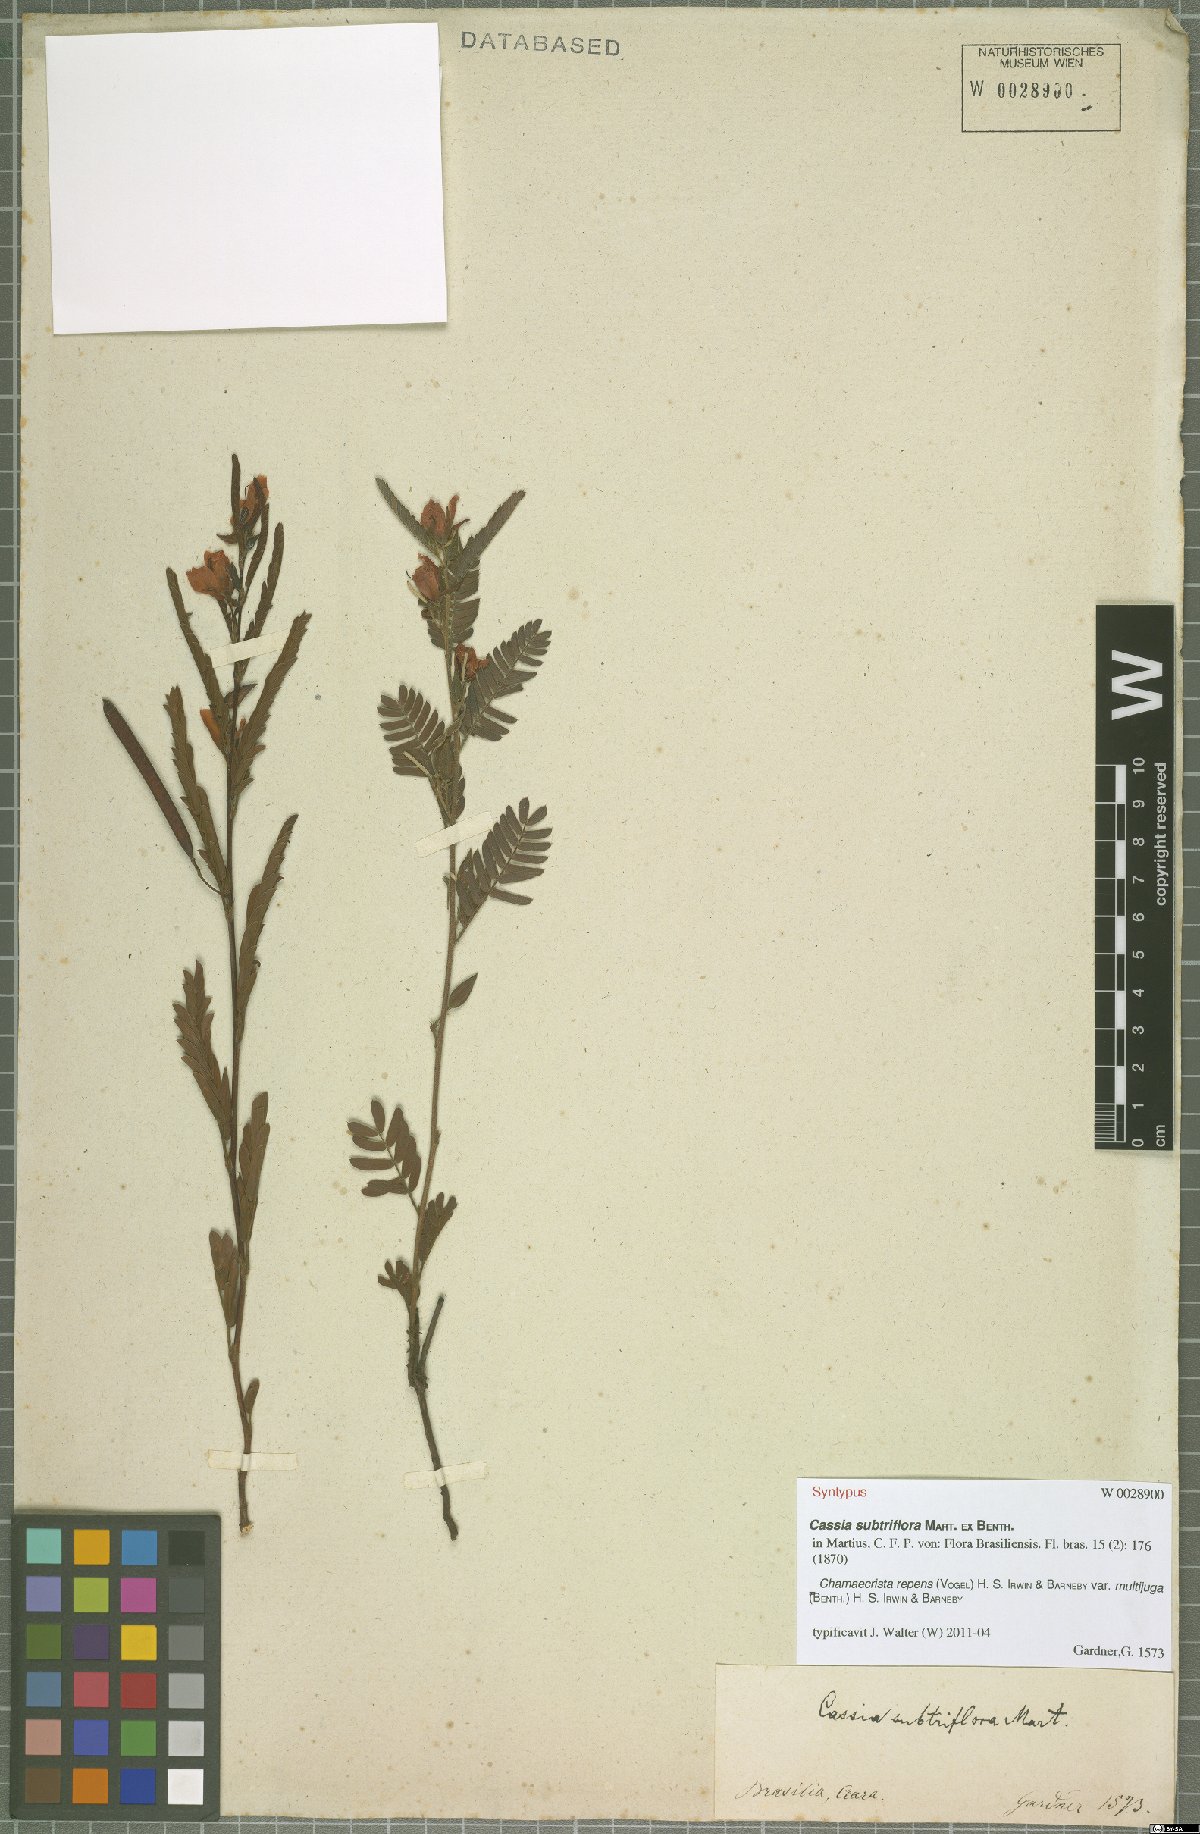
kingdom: Plantae
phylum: Tracheophyta
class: Magnoliopsida
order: Fabales
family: Fabaceae
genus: Chamaecrista
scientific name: Chamaecrista repens
